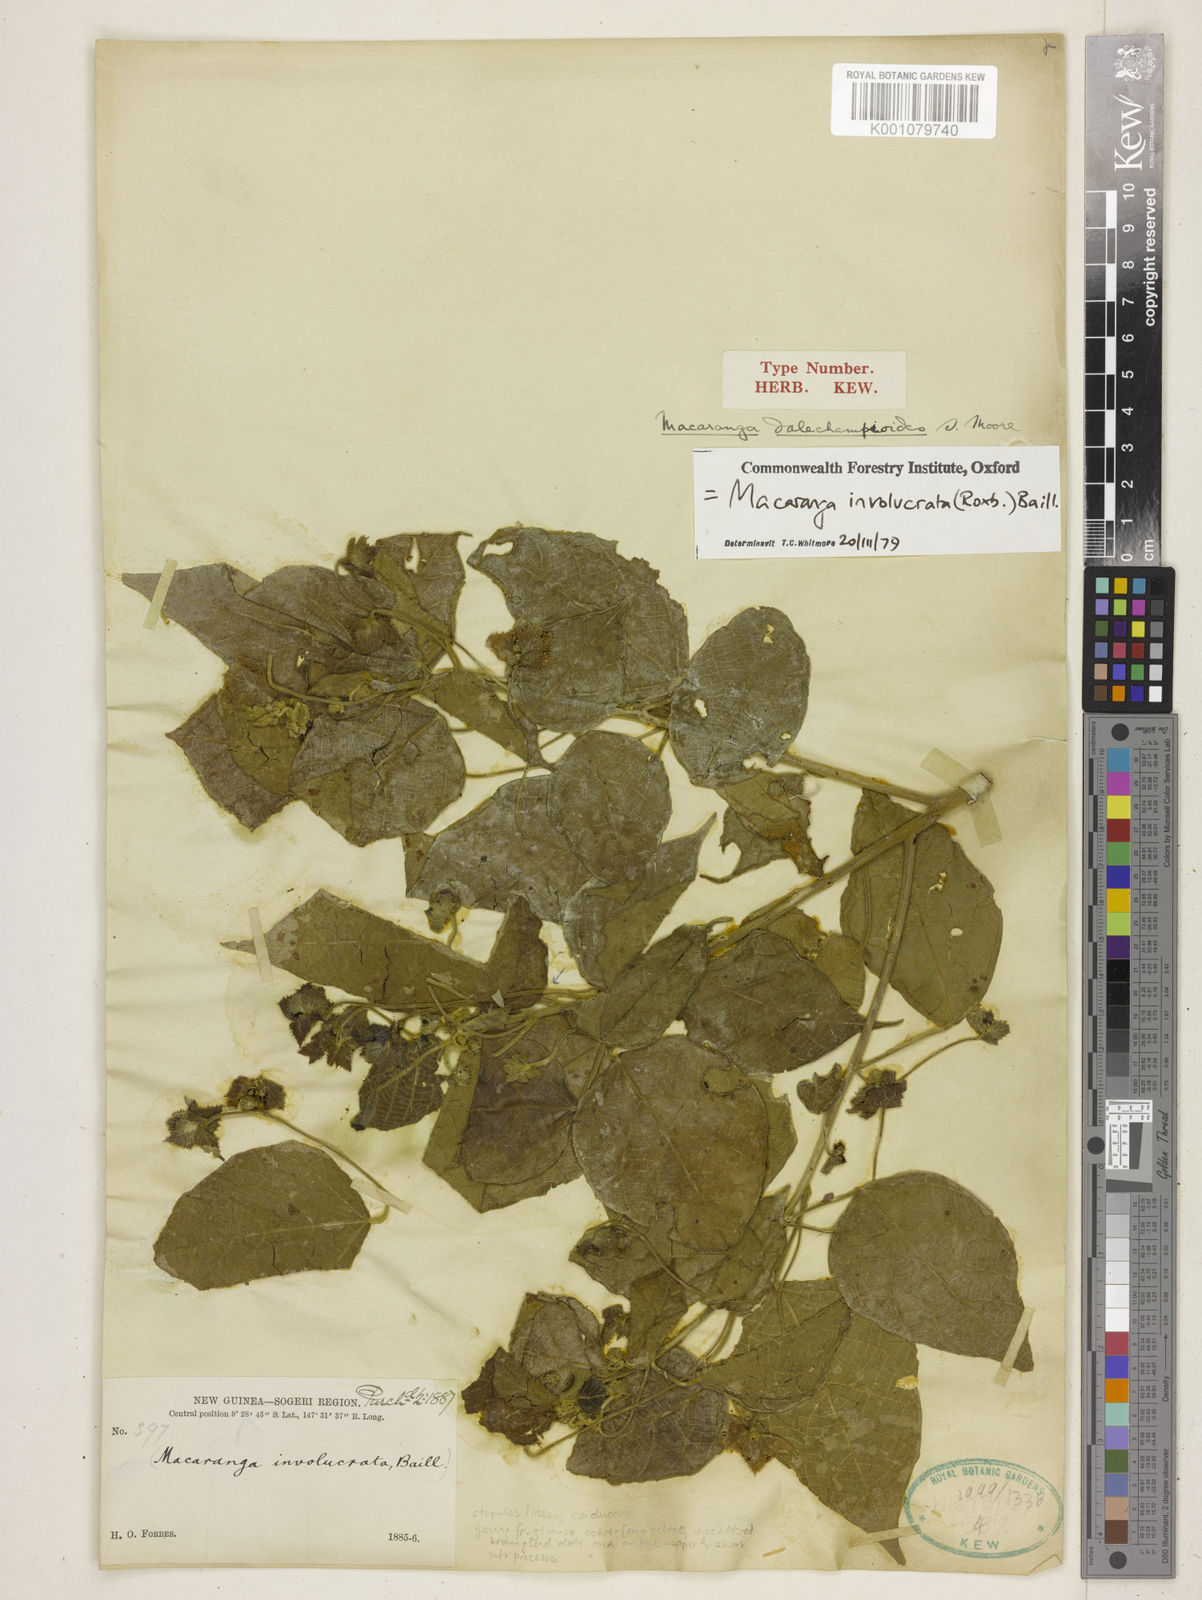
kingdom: Plantae
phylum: Tracheophyta
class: Magnoliopsida
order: Malpighiales
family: Euphorbiaceae
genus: Macaranga
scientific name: Macaranga involucrata
